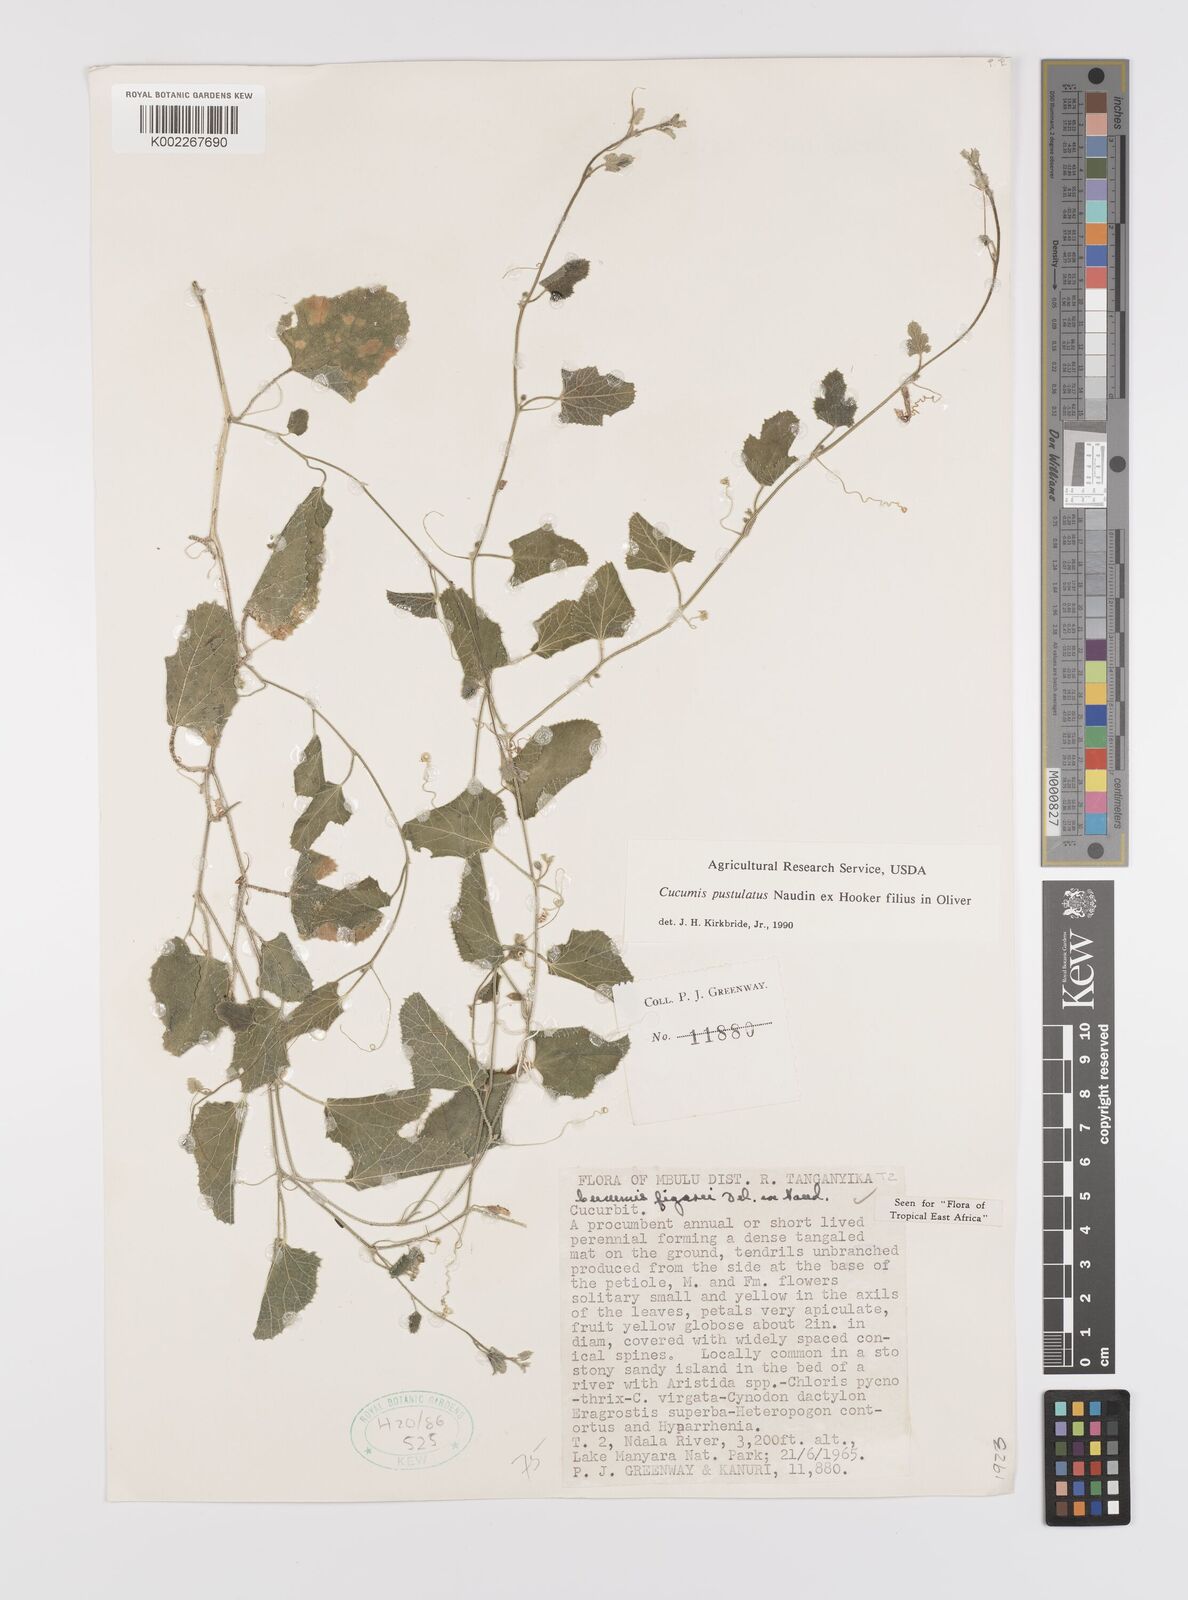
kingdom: Plantae
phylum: Tracheophyta
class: Magnoliopsida
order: Cucurbitales
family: Cucurbitaceae
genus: Cucumis
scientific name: Cucumis
